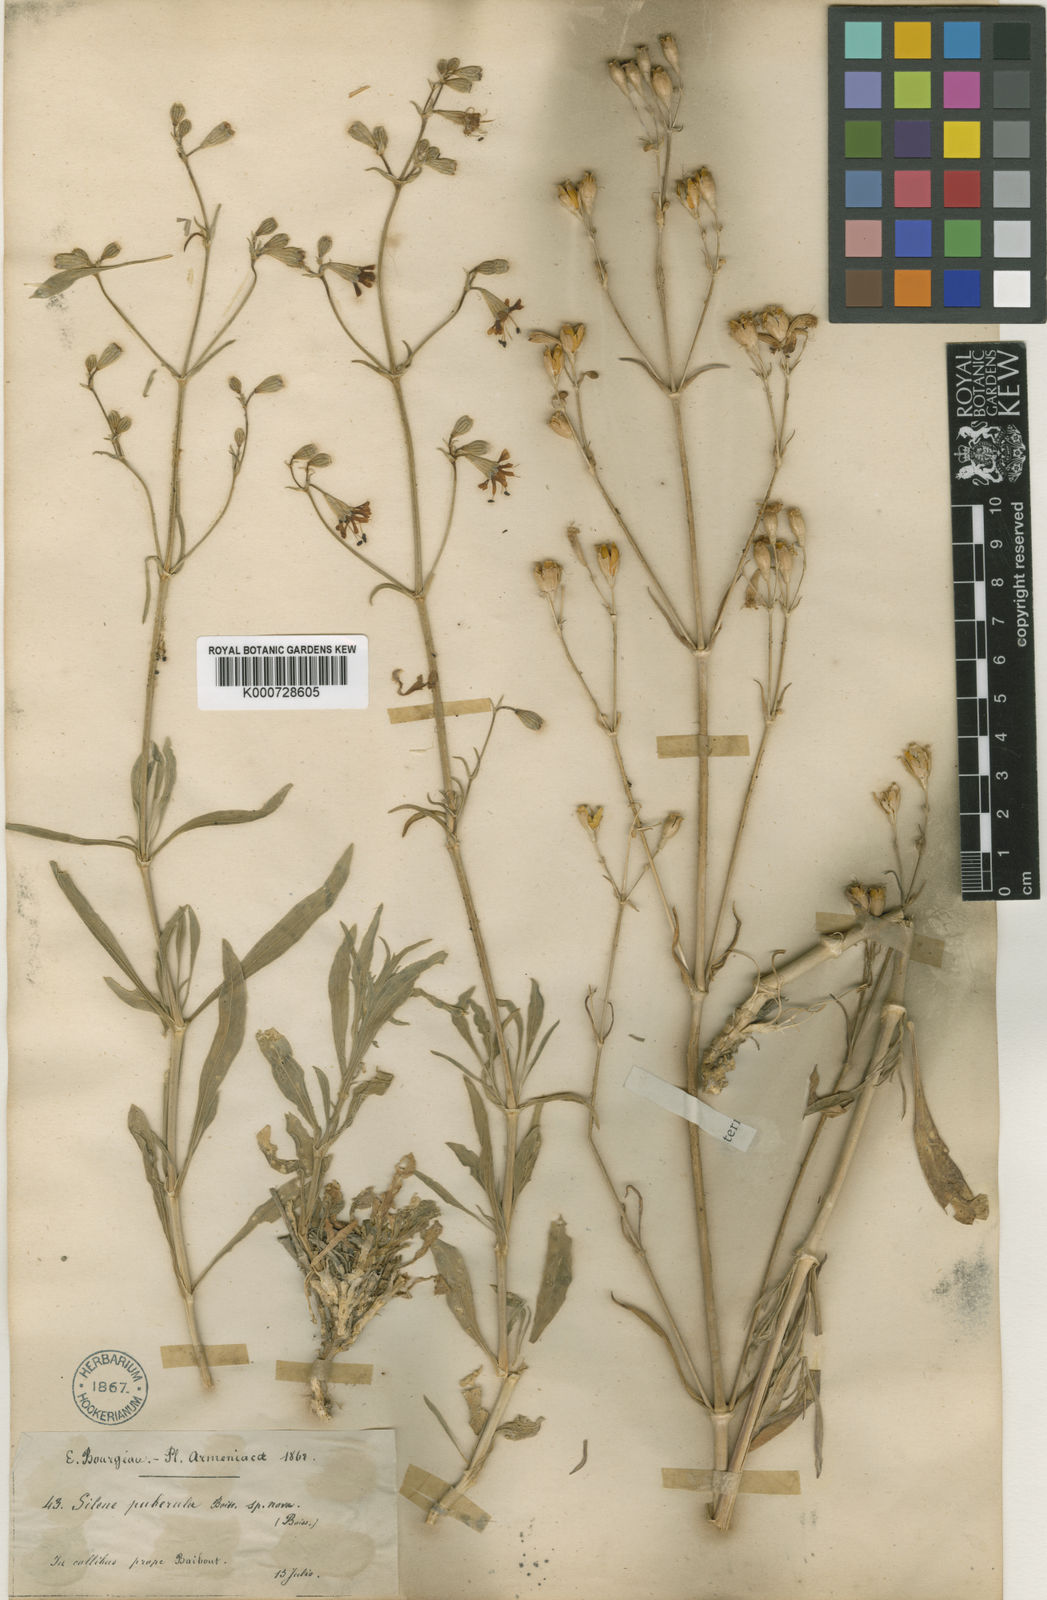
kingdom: Plantae
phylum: Tracheophyta
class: Magnoliopsida
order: Caryophyllales
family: Caryophyllaceae
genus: Silene
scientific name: Silene marschallii
